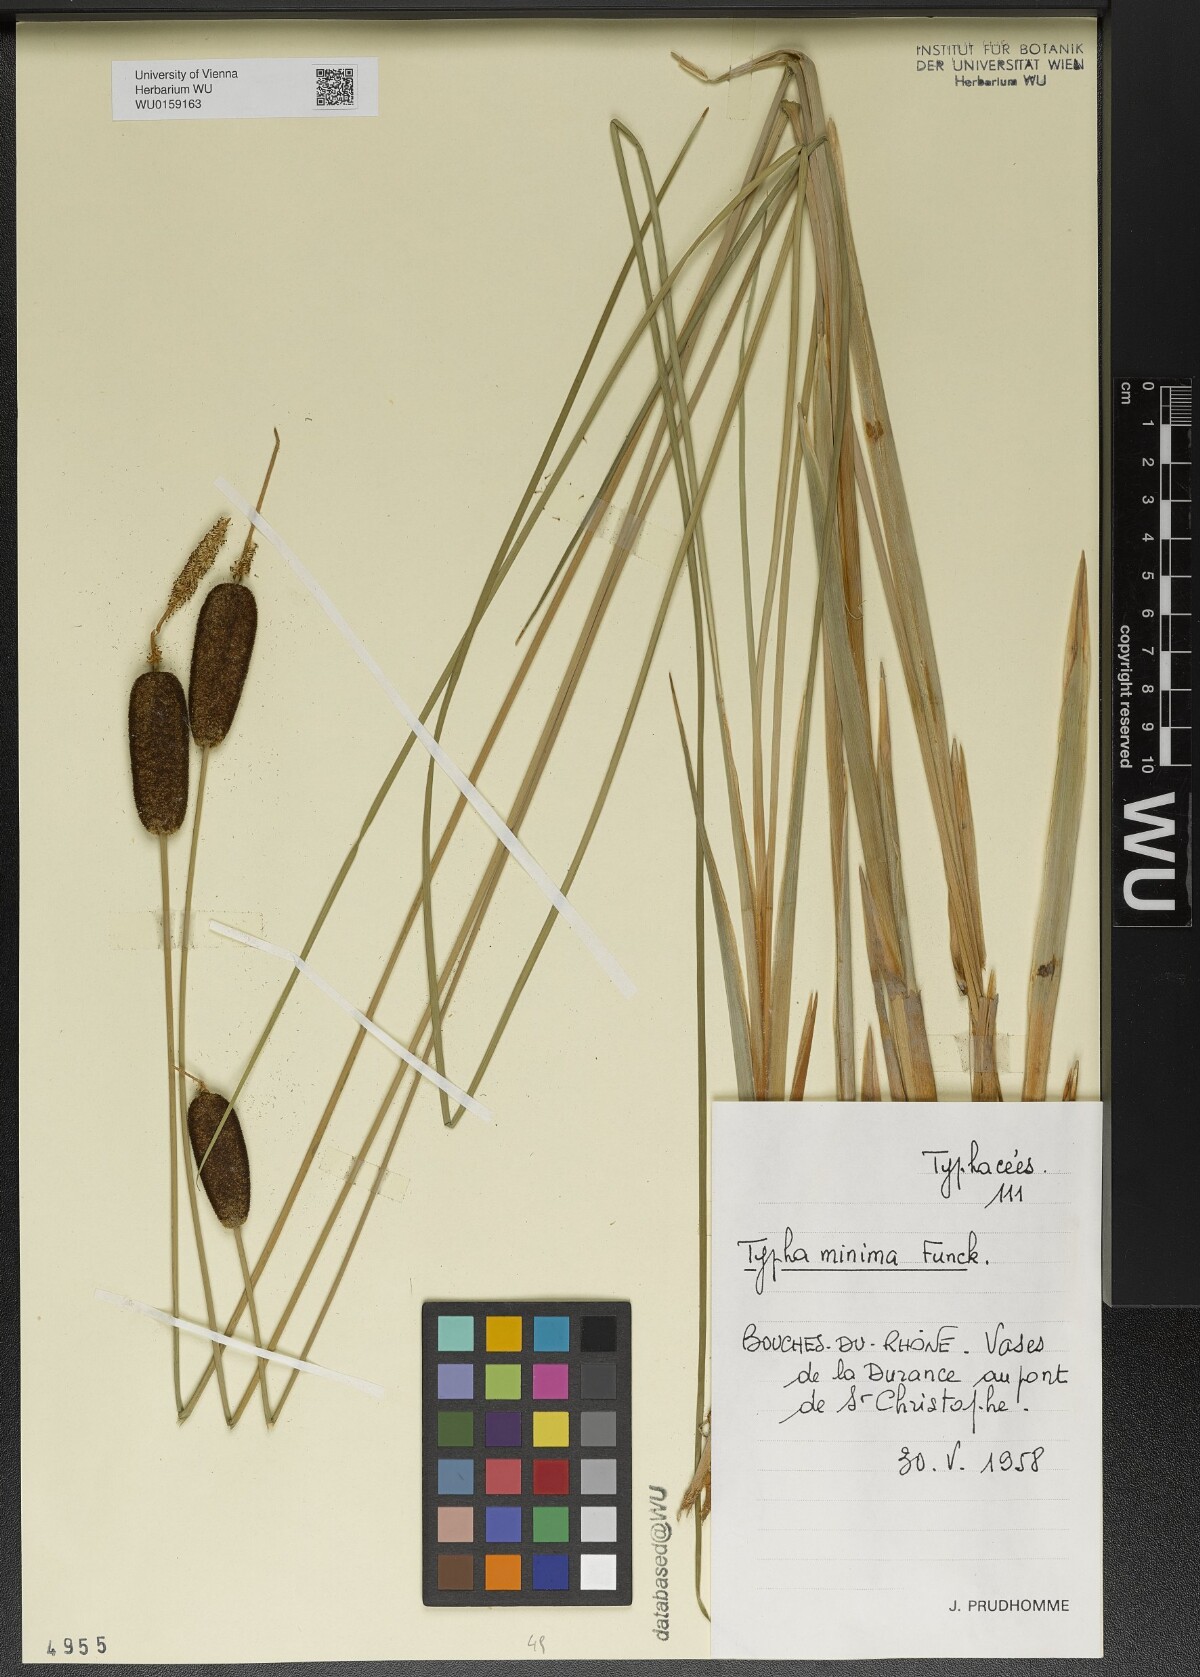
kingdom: Plantae
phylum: Tracheophyta
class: Liliopsida
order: Poales
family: Typhaceae
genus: Typha
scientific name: Typha minima
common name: Dwarf bulrush
